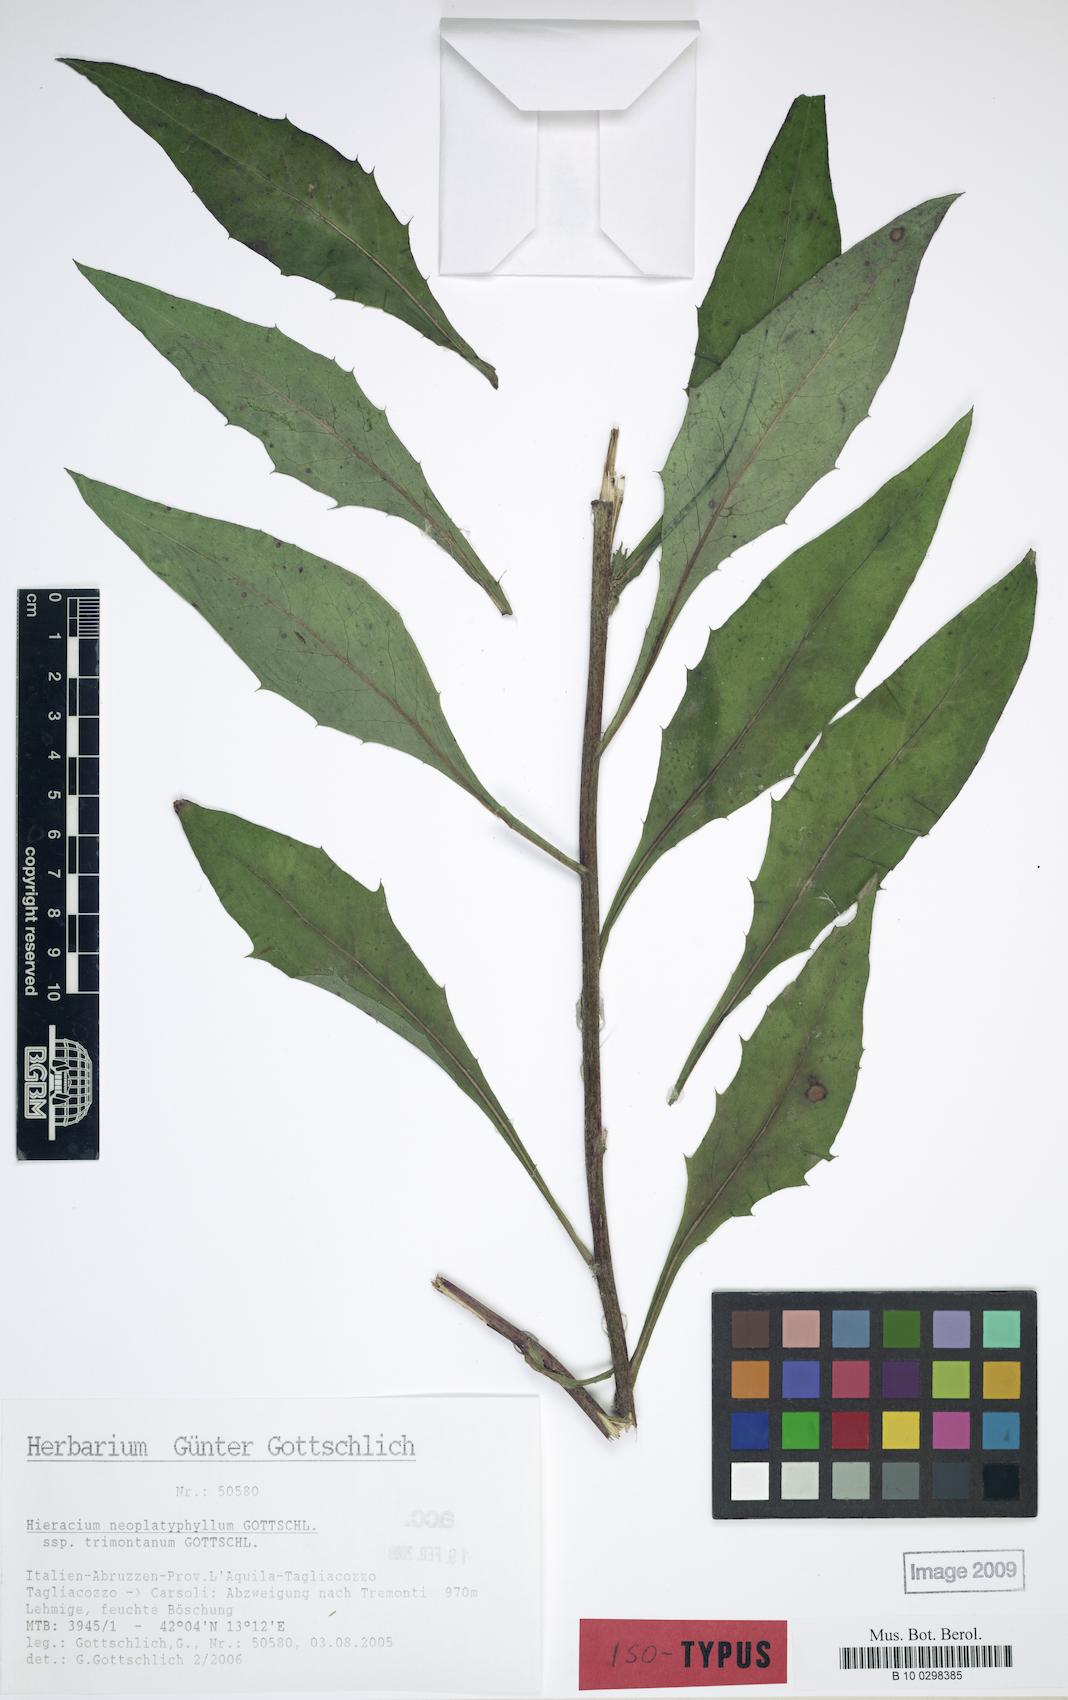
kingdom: Plantae
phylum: Tracheophyta
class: Magnoliopsida
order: Asterales
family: Asteraceae
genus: Hieracium
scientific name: Hieracium neoplatyphyllum
